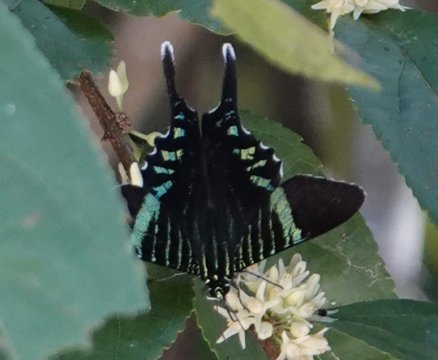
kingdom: Animalia
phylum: Arthropoda
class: Insecta
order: Lepidoptera
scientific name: Lepidoptera
